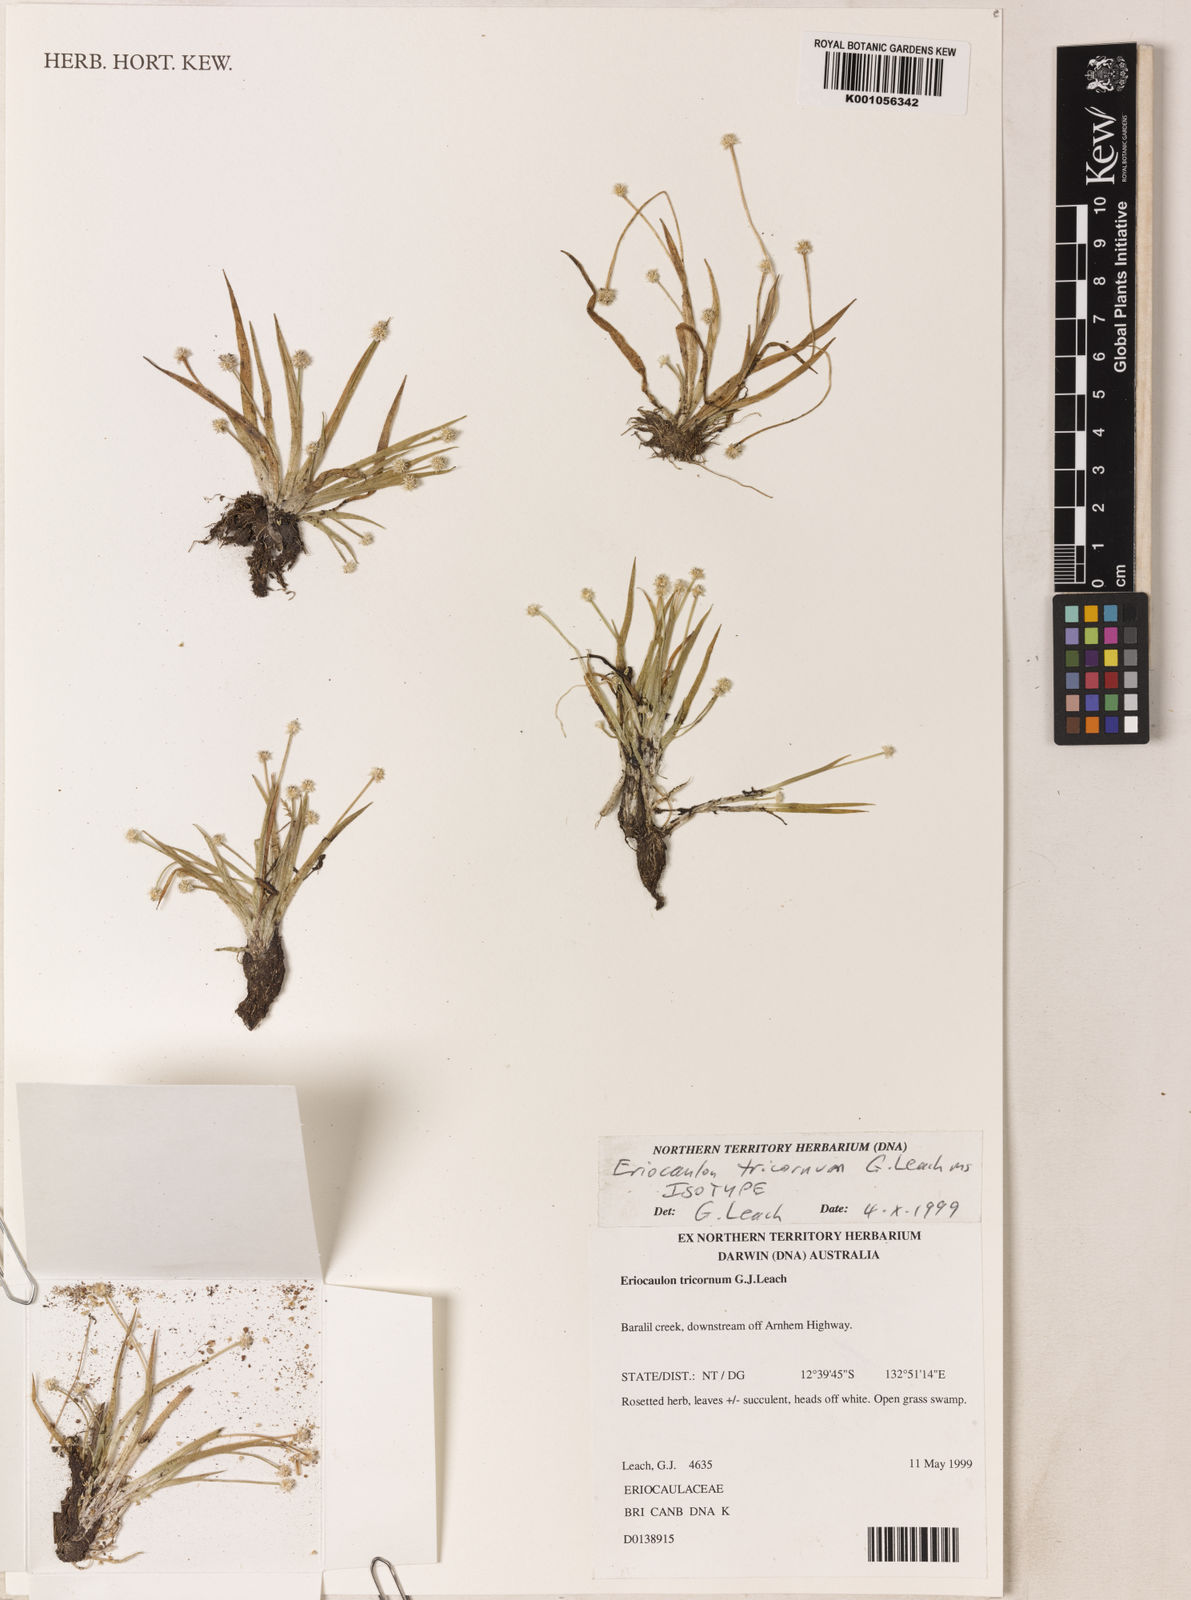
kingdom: Plantae
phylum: Tracheophyta
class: Liliopsida
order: Poales
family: Eriocaulaceae
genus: Eriocaulon
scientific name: Eriocaulon tricornum
